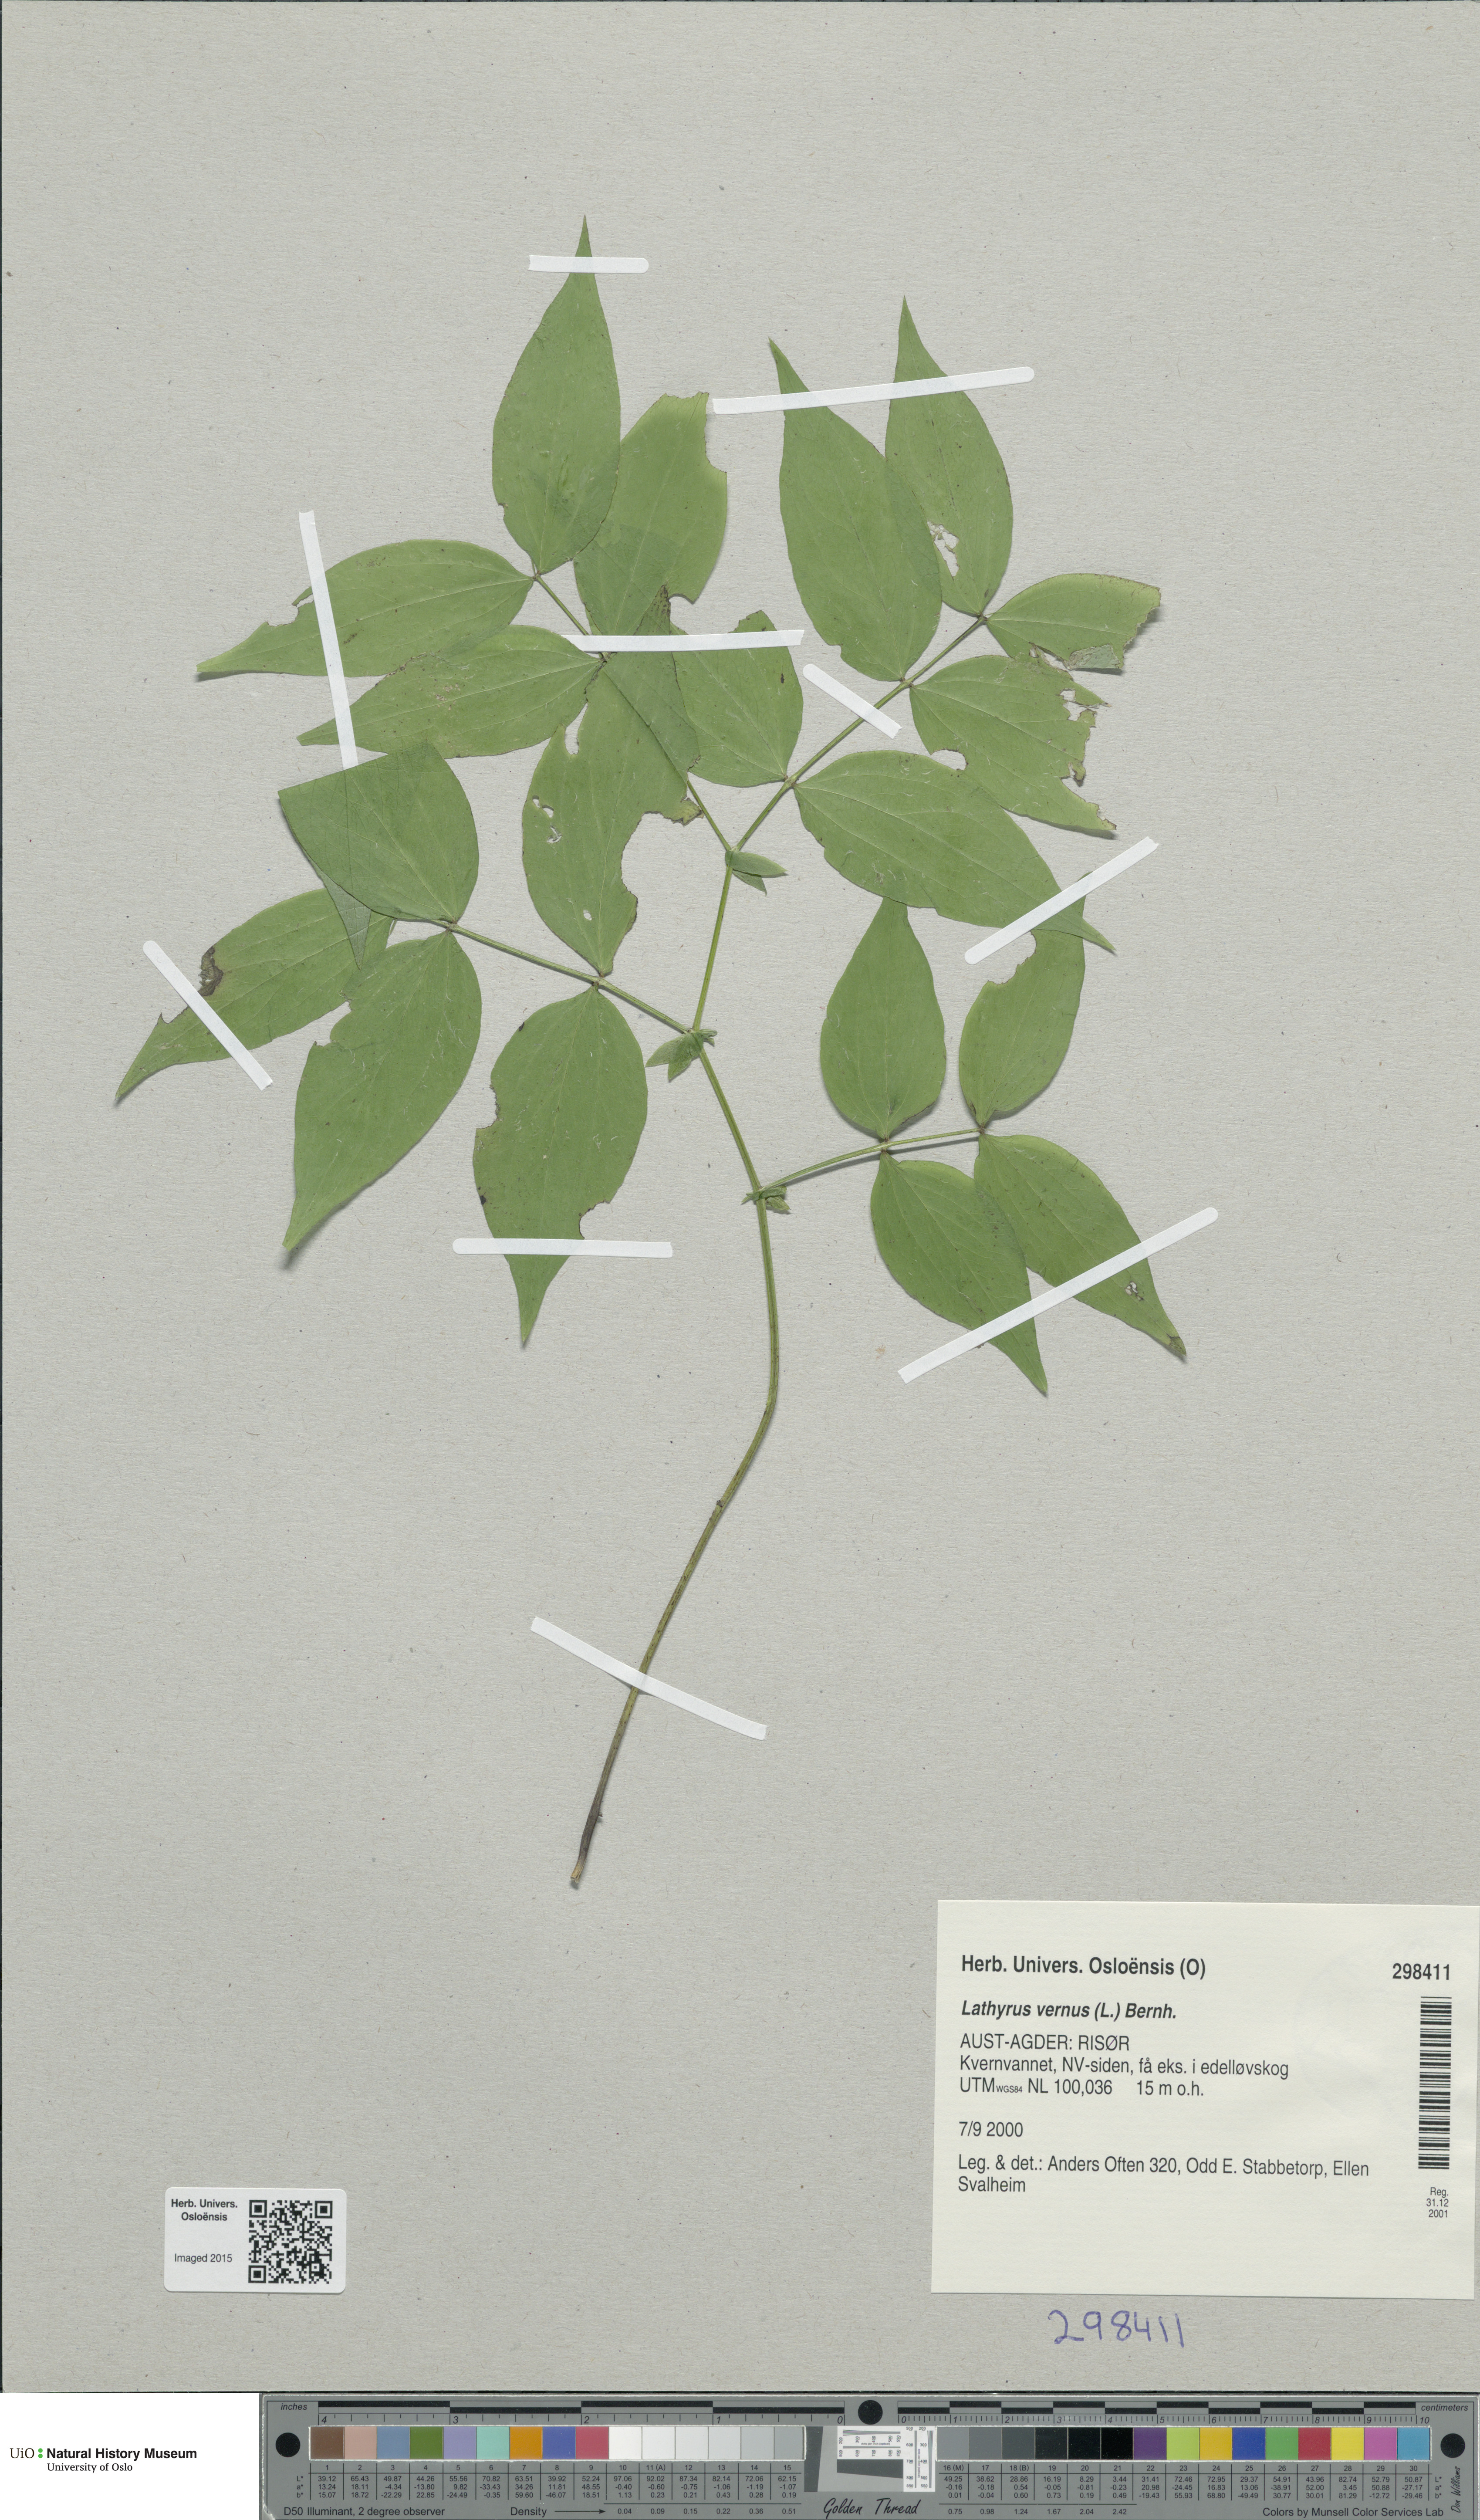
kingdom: Plantae
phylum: Tracheophyta
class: Magnoliopsida
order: Fabales
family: Fabaceae
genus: Lathyrus
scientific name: Lathyrus vernus
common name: Spring pea
